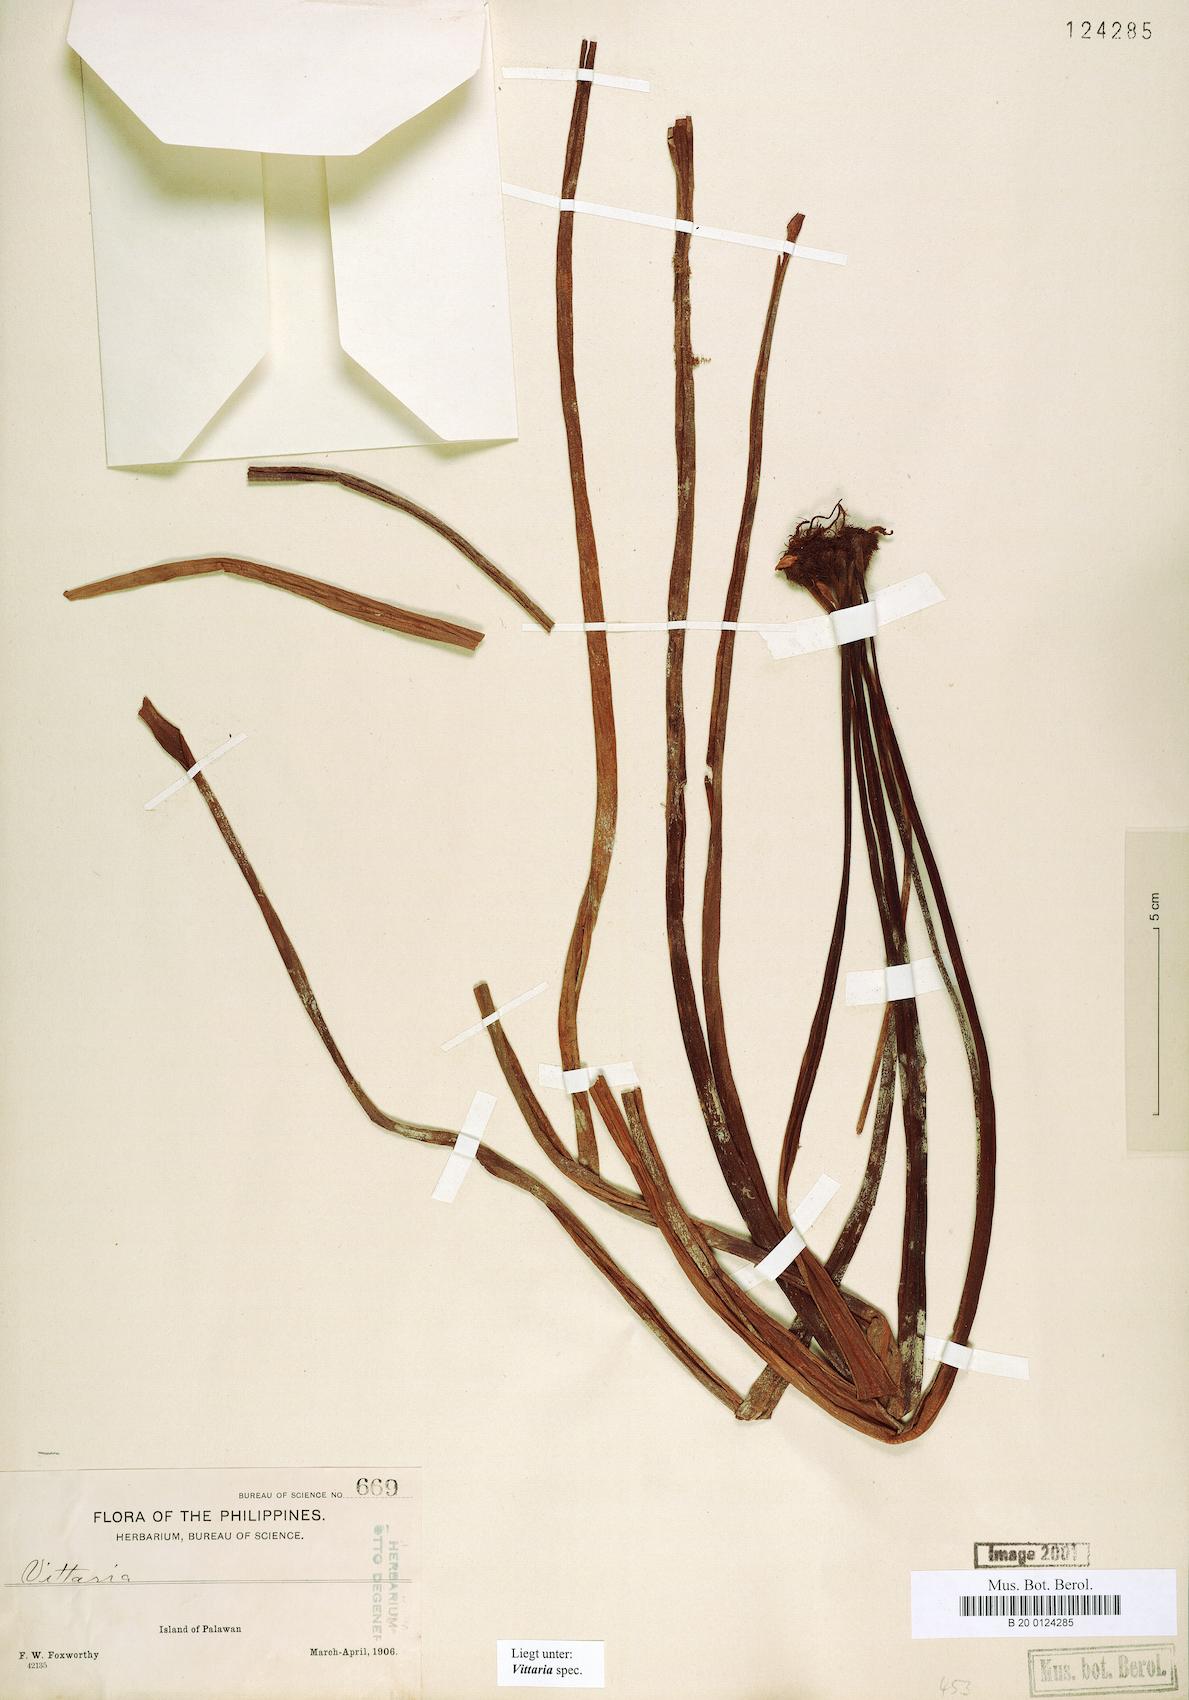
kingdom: Plantae
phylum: Tracheophyta
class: Polypodiopsida
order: Polypodiales
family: Pteridaceae
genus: Vittaria
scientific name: Vittaria
